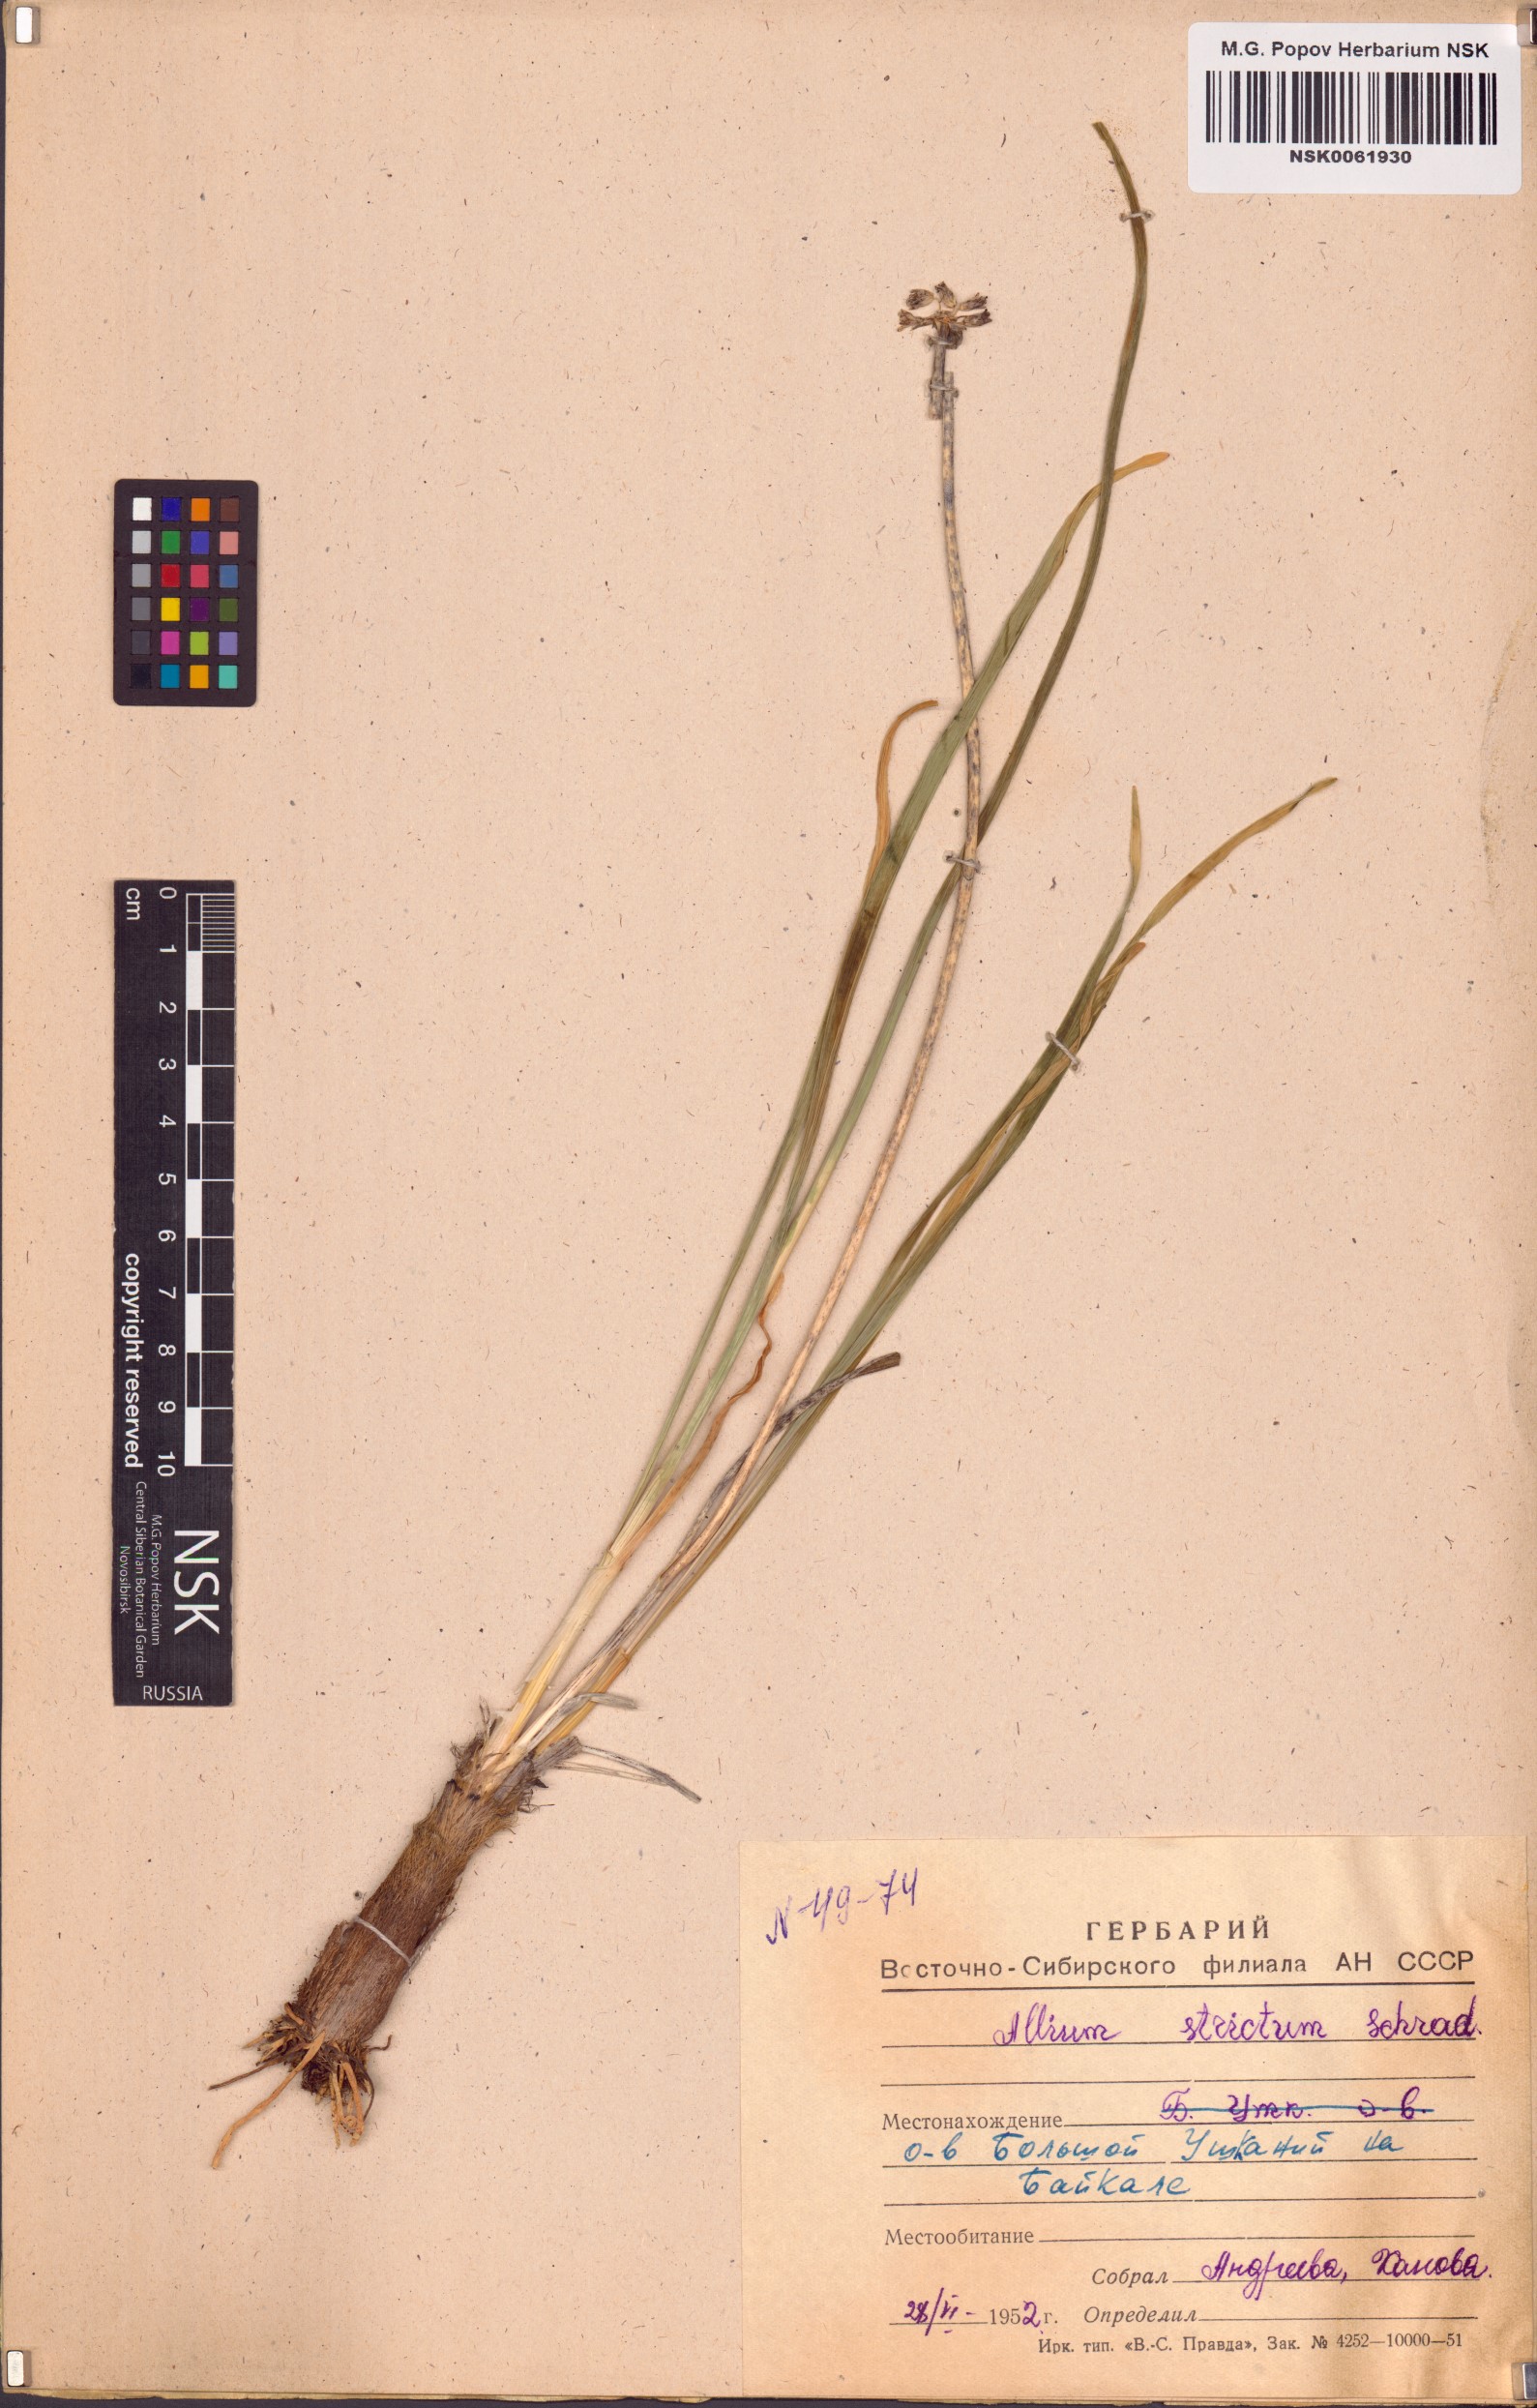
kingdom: Plantae
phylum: Tracheophyta
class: Liliopsida
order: Asparagales
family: Amaryllidaceae
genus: Allium
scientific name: Allium strictum
